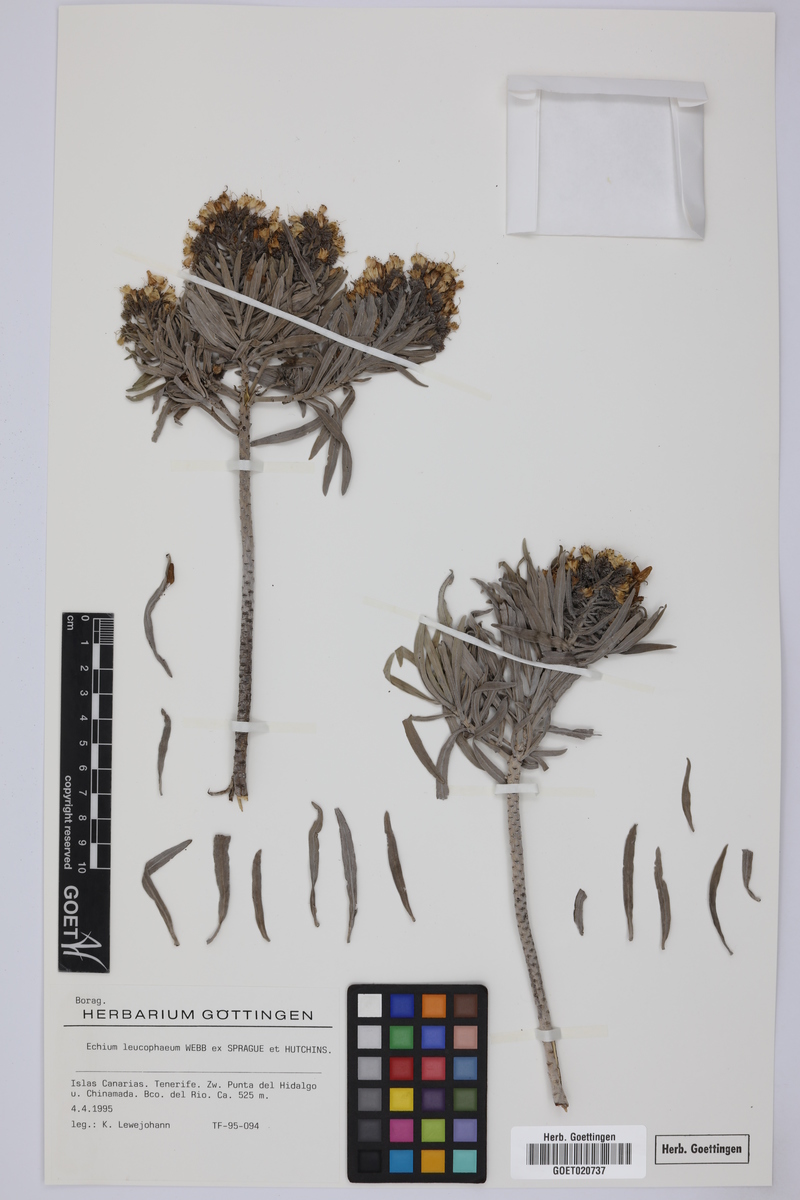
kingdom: Plantae
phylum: Tracheophyta
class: Magnoliopsida
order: Boraginales
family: Boraginaceae
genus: Echium
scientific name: Echium leucophaeum
